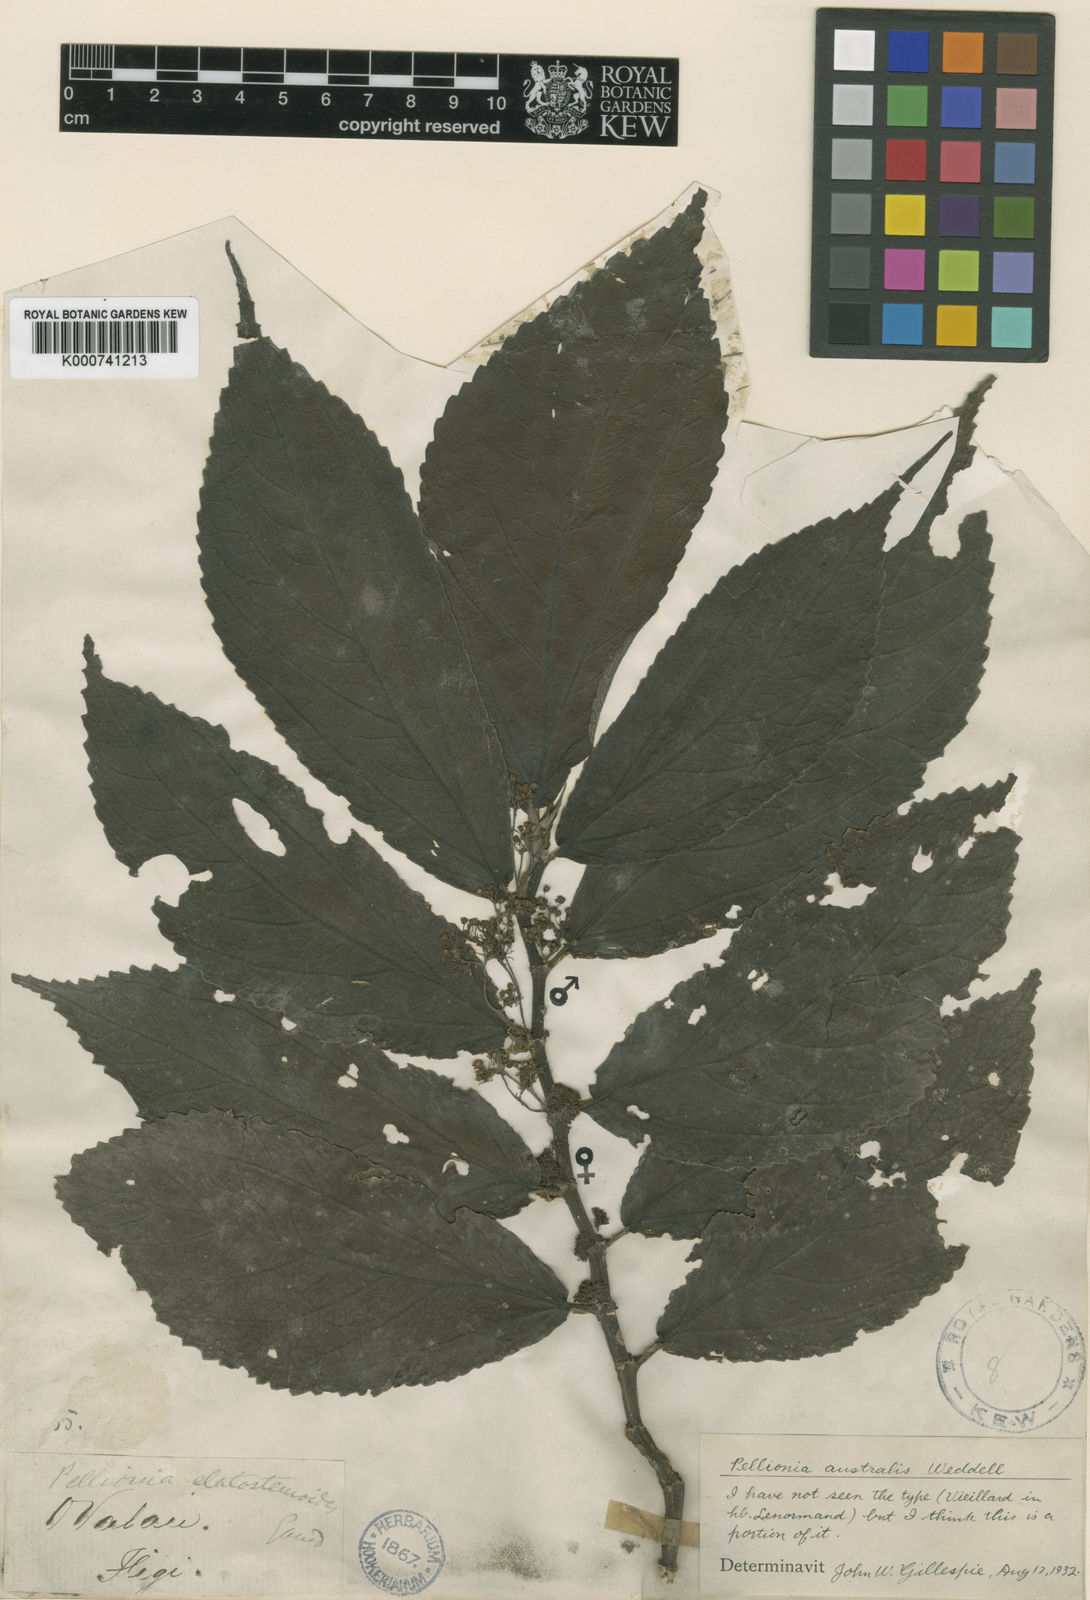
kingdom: Plantae
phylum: Tracheophyta
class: Magnoliopsida
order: Rosales
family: Urticaceae
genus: Elatostematoides
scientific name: Elatostematoides australe
